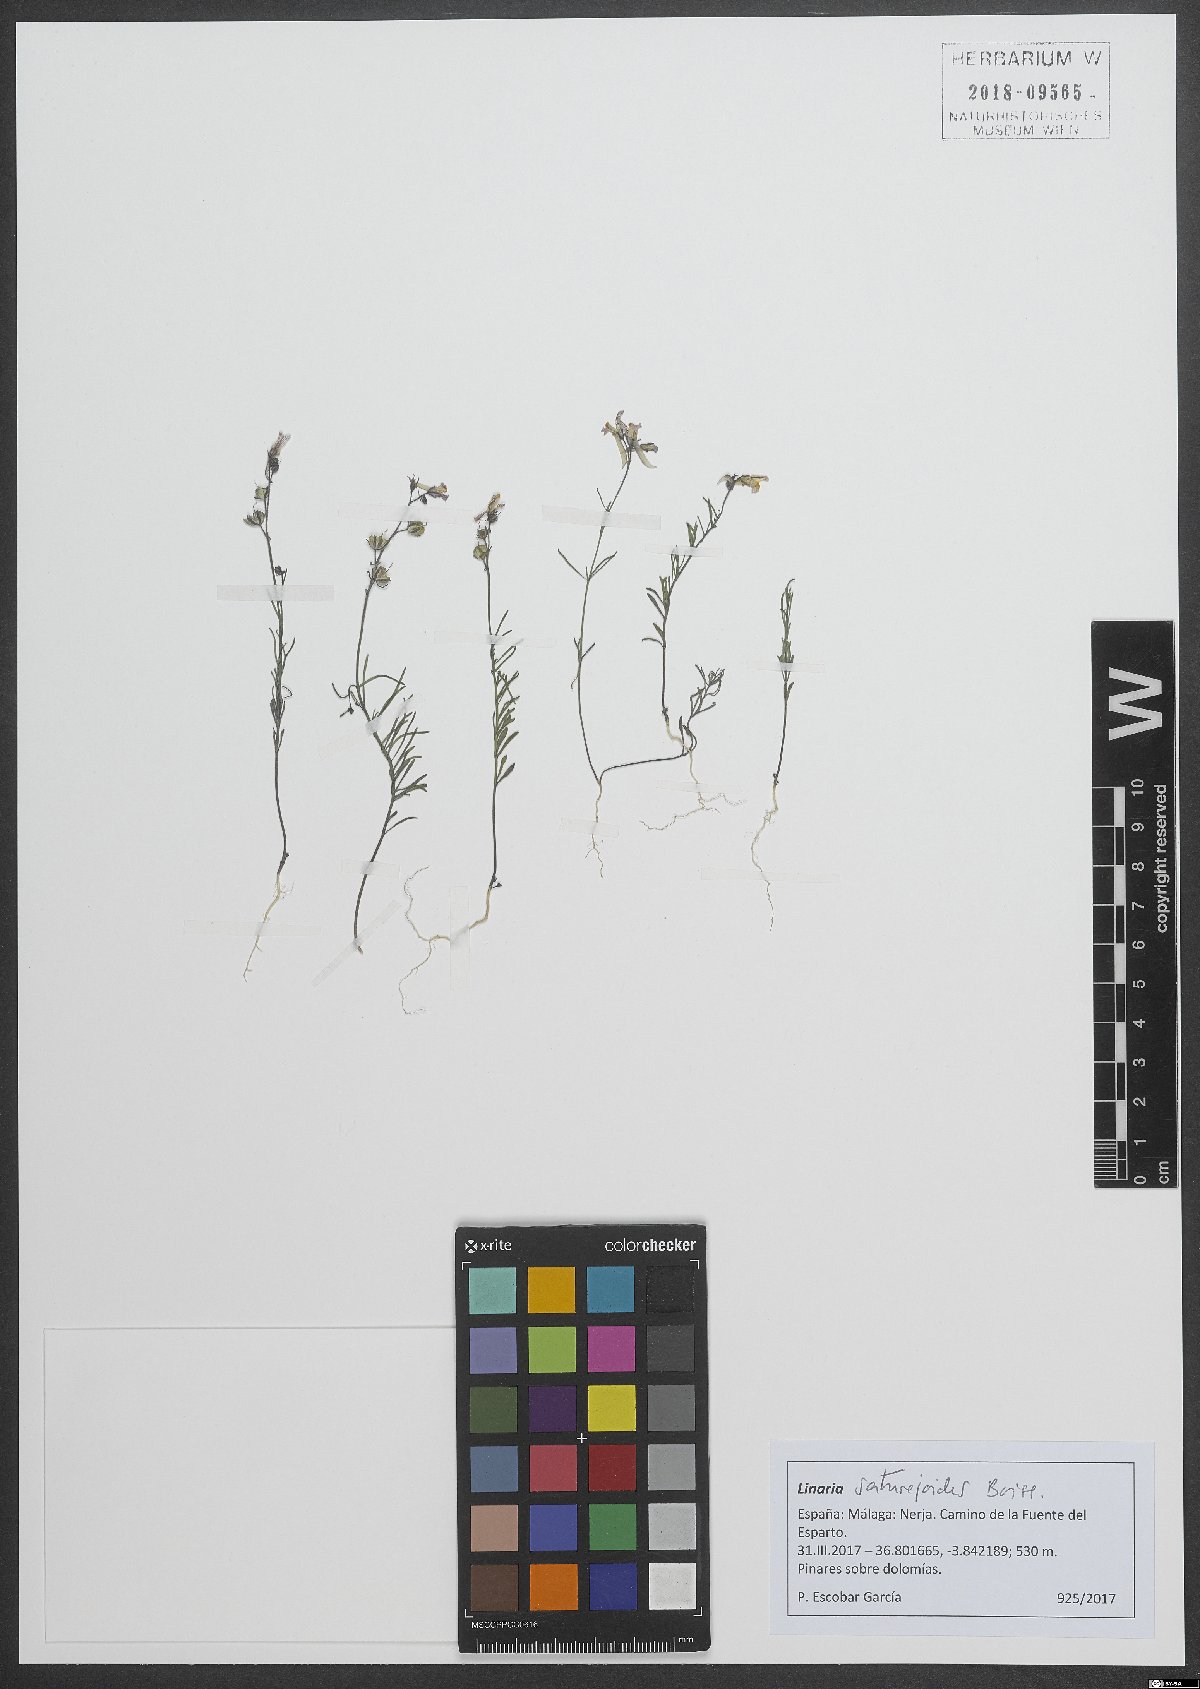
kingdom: Plantae
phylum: Tracheophyta
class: Magnoliopsida
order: Lamiales
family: Plantaginaceae
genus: Linaria
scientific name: Linaria saturejoides
